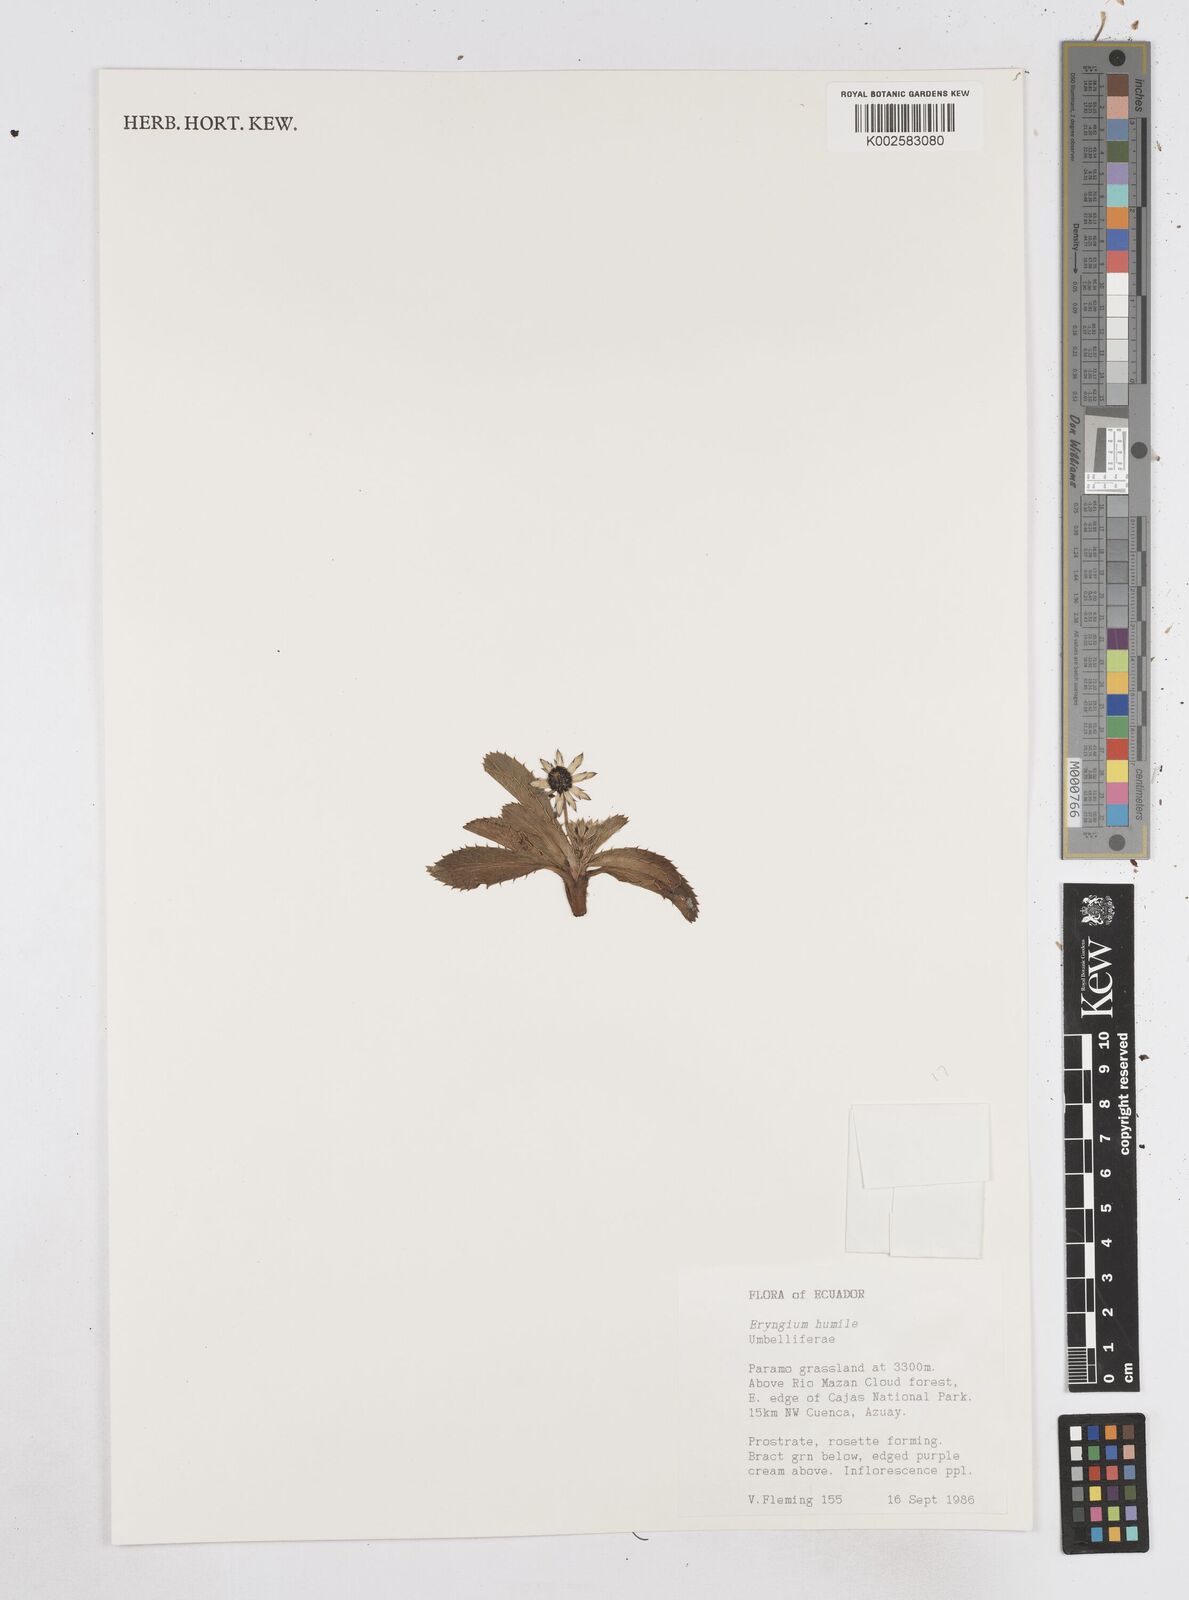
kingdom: Plantae
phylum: Tracheophyta
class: Magnoliopsida
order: Apiales
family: Apiaceae
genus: Eryngium
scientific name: Eryngium humile
